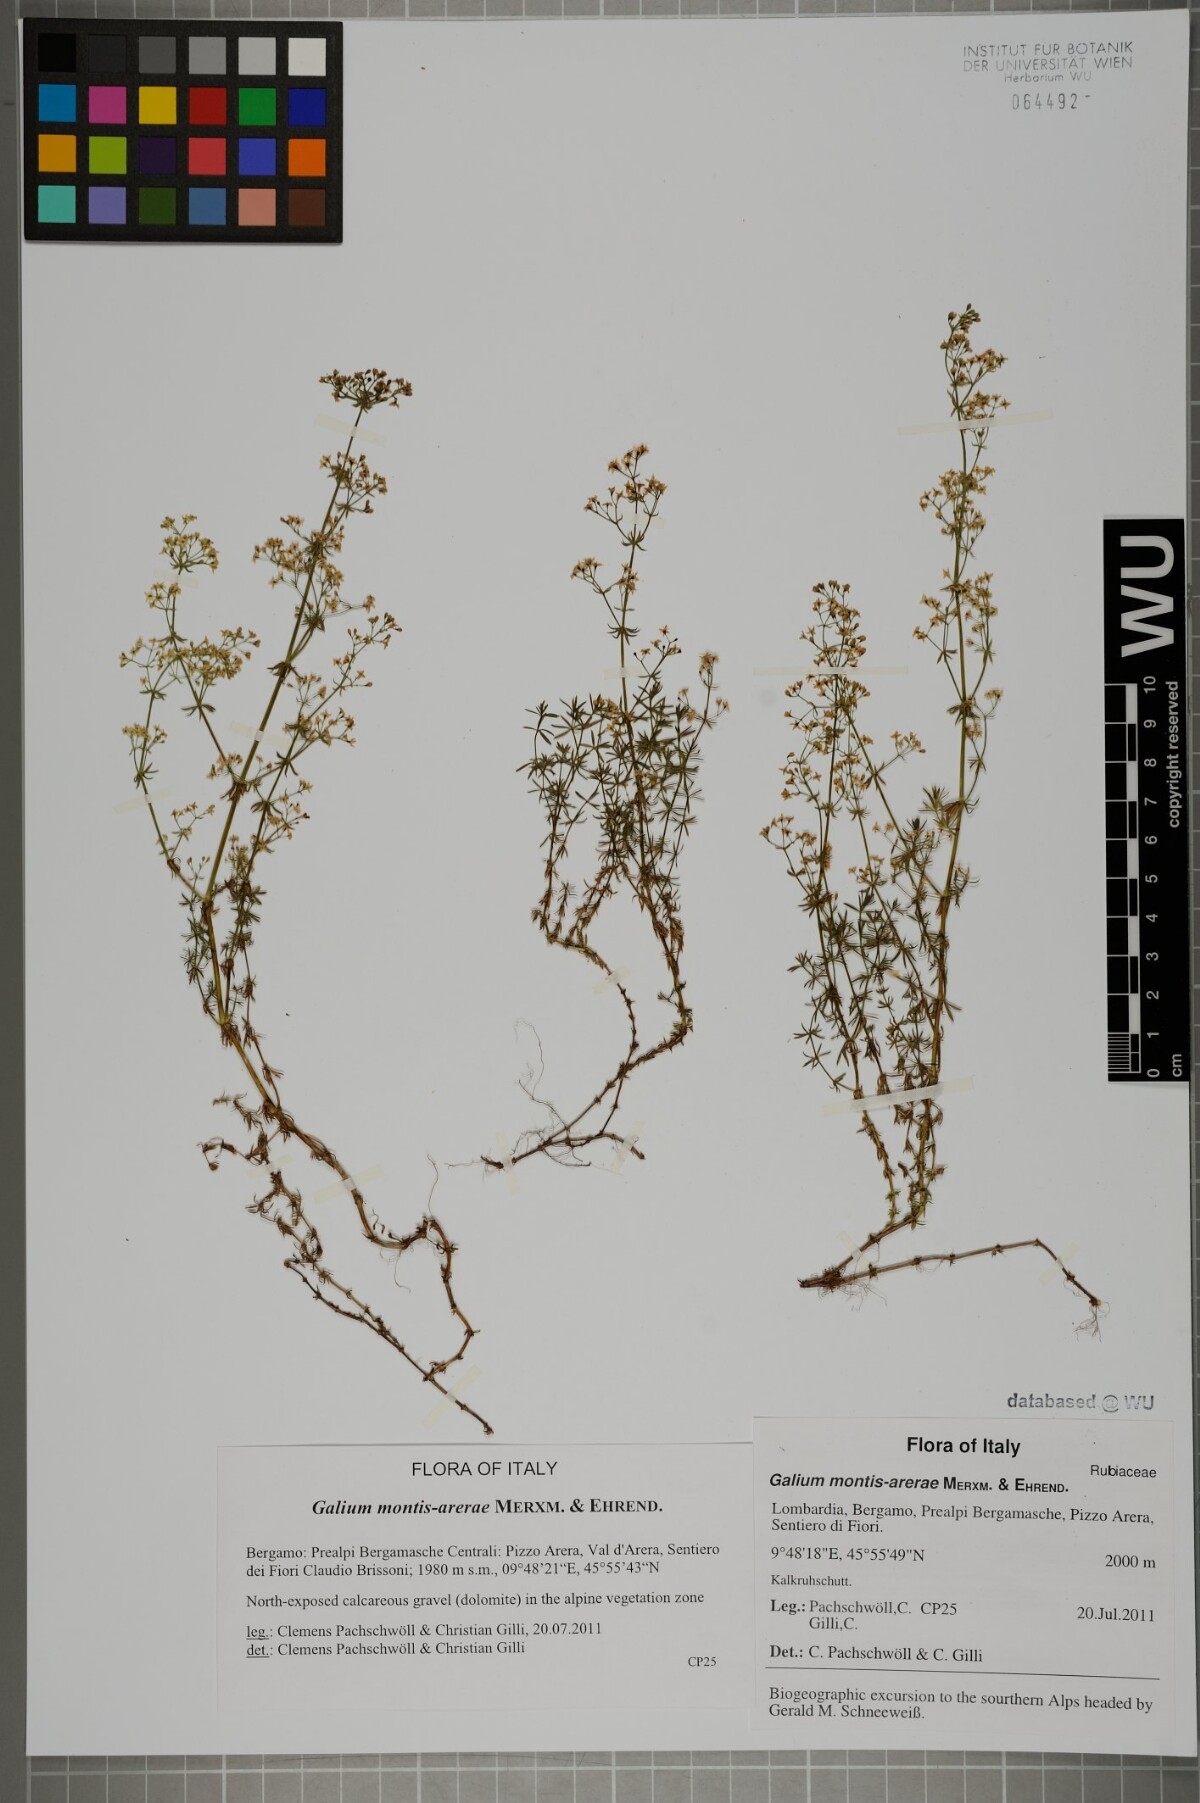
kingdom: Plantae
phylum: Tracheophyta
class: Magnoliopsida
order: Gentianales
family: Rubiaceae
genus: Galium
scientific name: Galium montis-arerae
